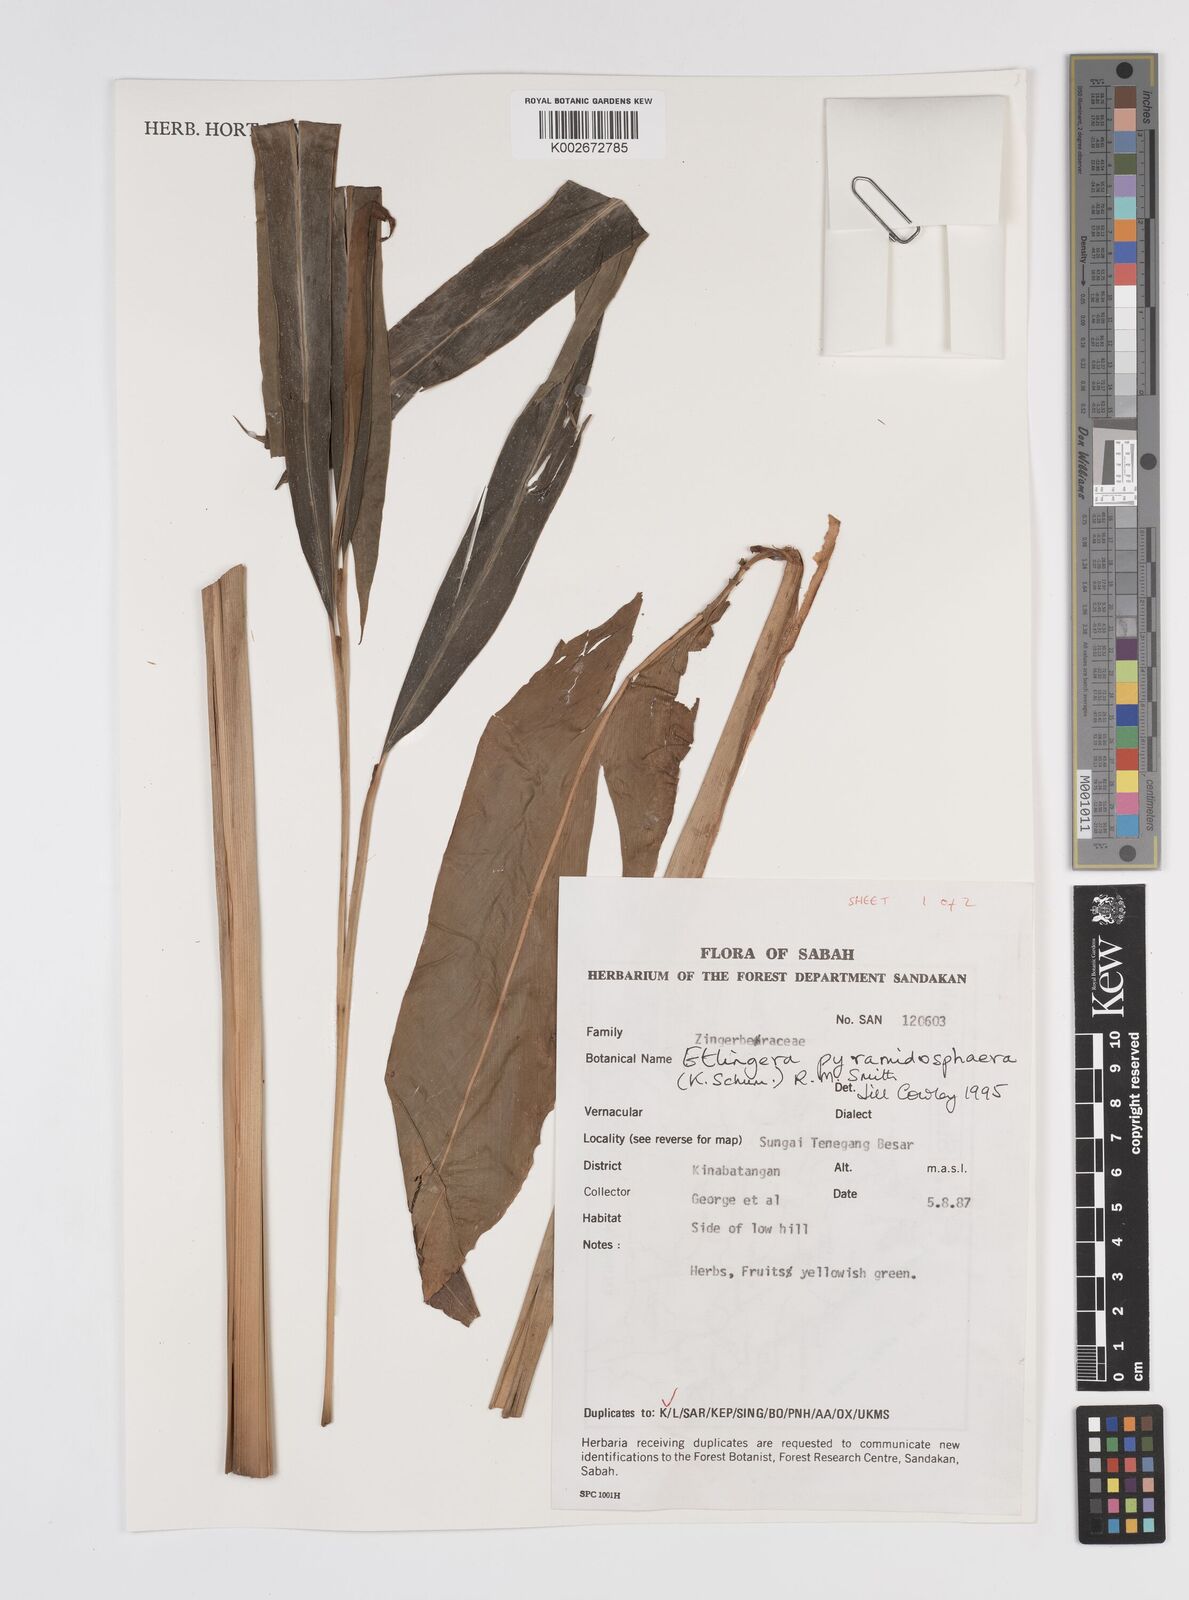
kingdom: Plantae
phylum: Tracheophyta
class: Liliopsida
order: Zingiberales
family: Zingiberaceae
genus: Etlingera
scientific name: Etlingera pyramidosphaera
